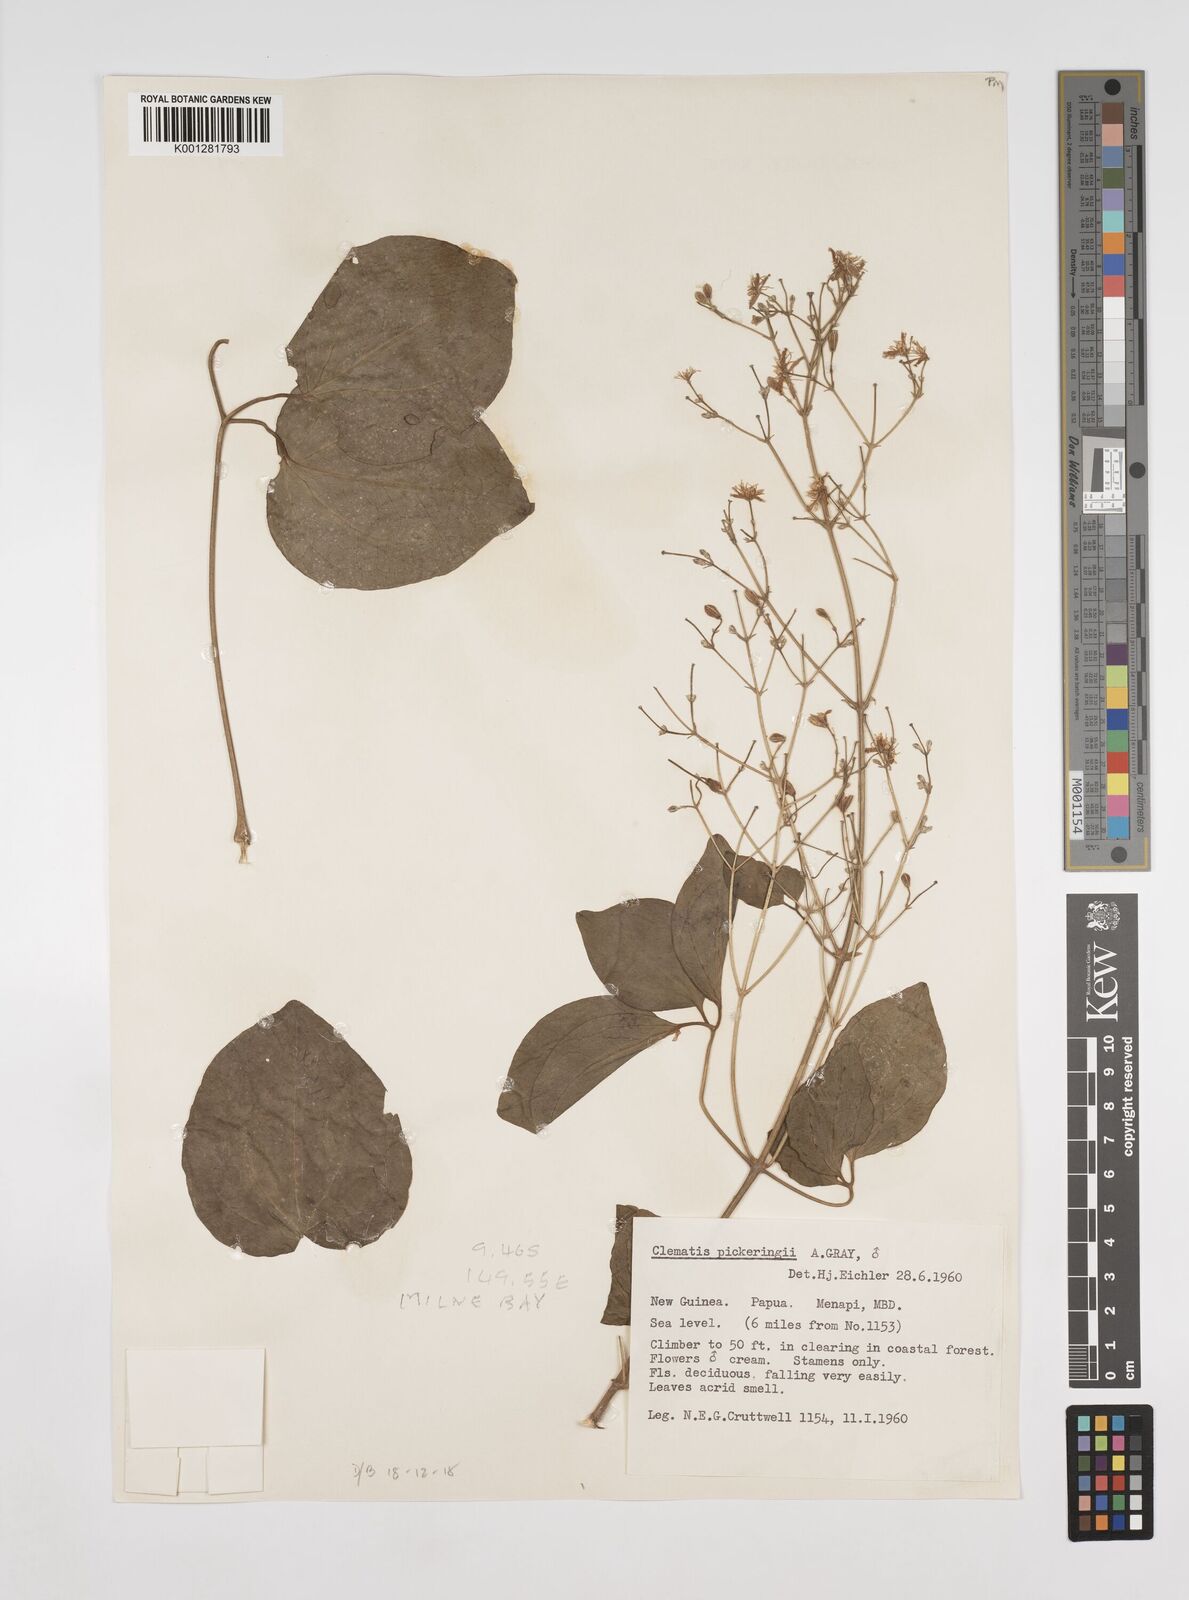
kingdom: Plantae
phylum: Tracheophyta
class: Magnoliopsida
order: Ranunculales
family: Ranunculaceae
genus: Clematis
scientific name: Clematis pickeringii
